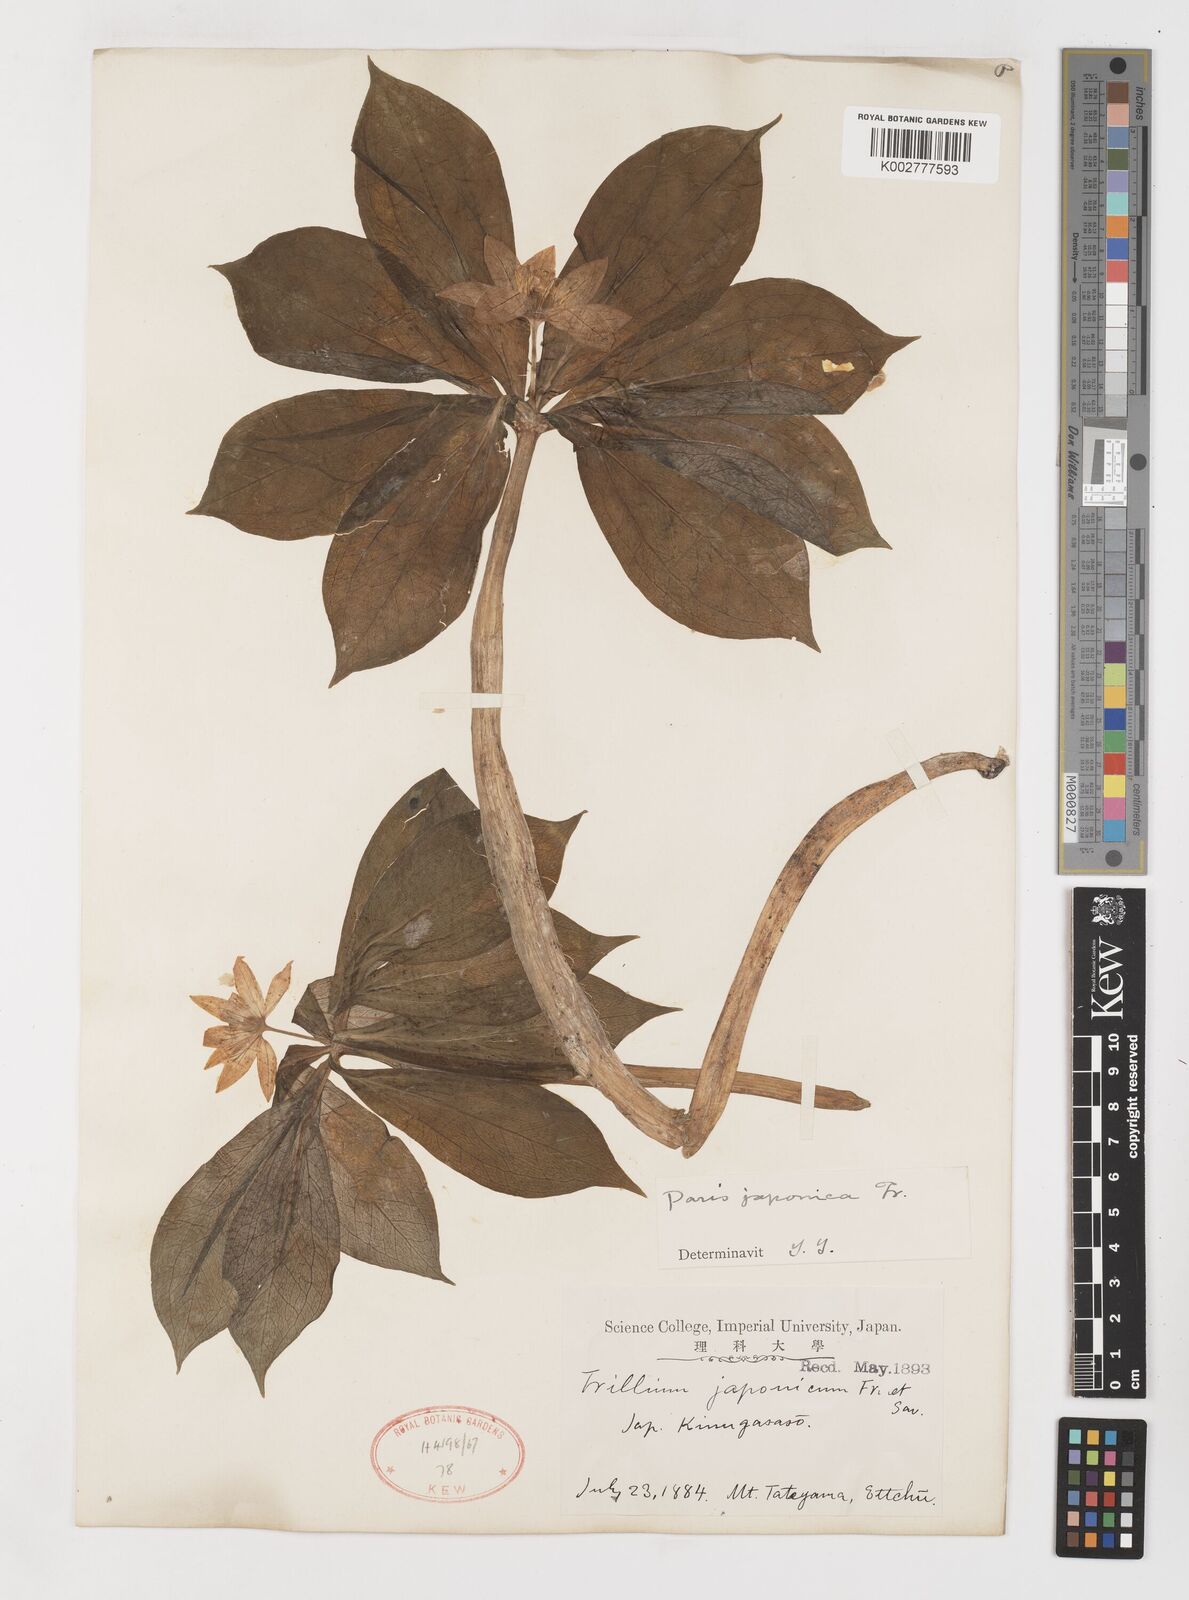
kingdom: Plantae
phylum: Tracheophyta
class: Liliopsida
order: Liliales
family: Melanthiaceae
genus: Paris
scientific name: Paris japonica
